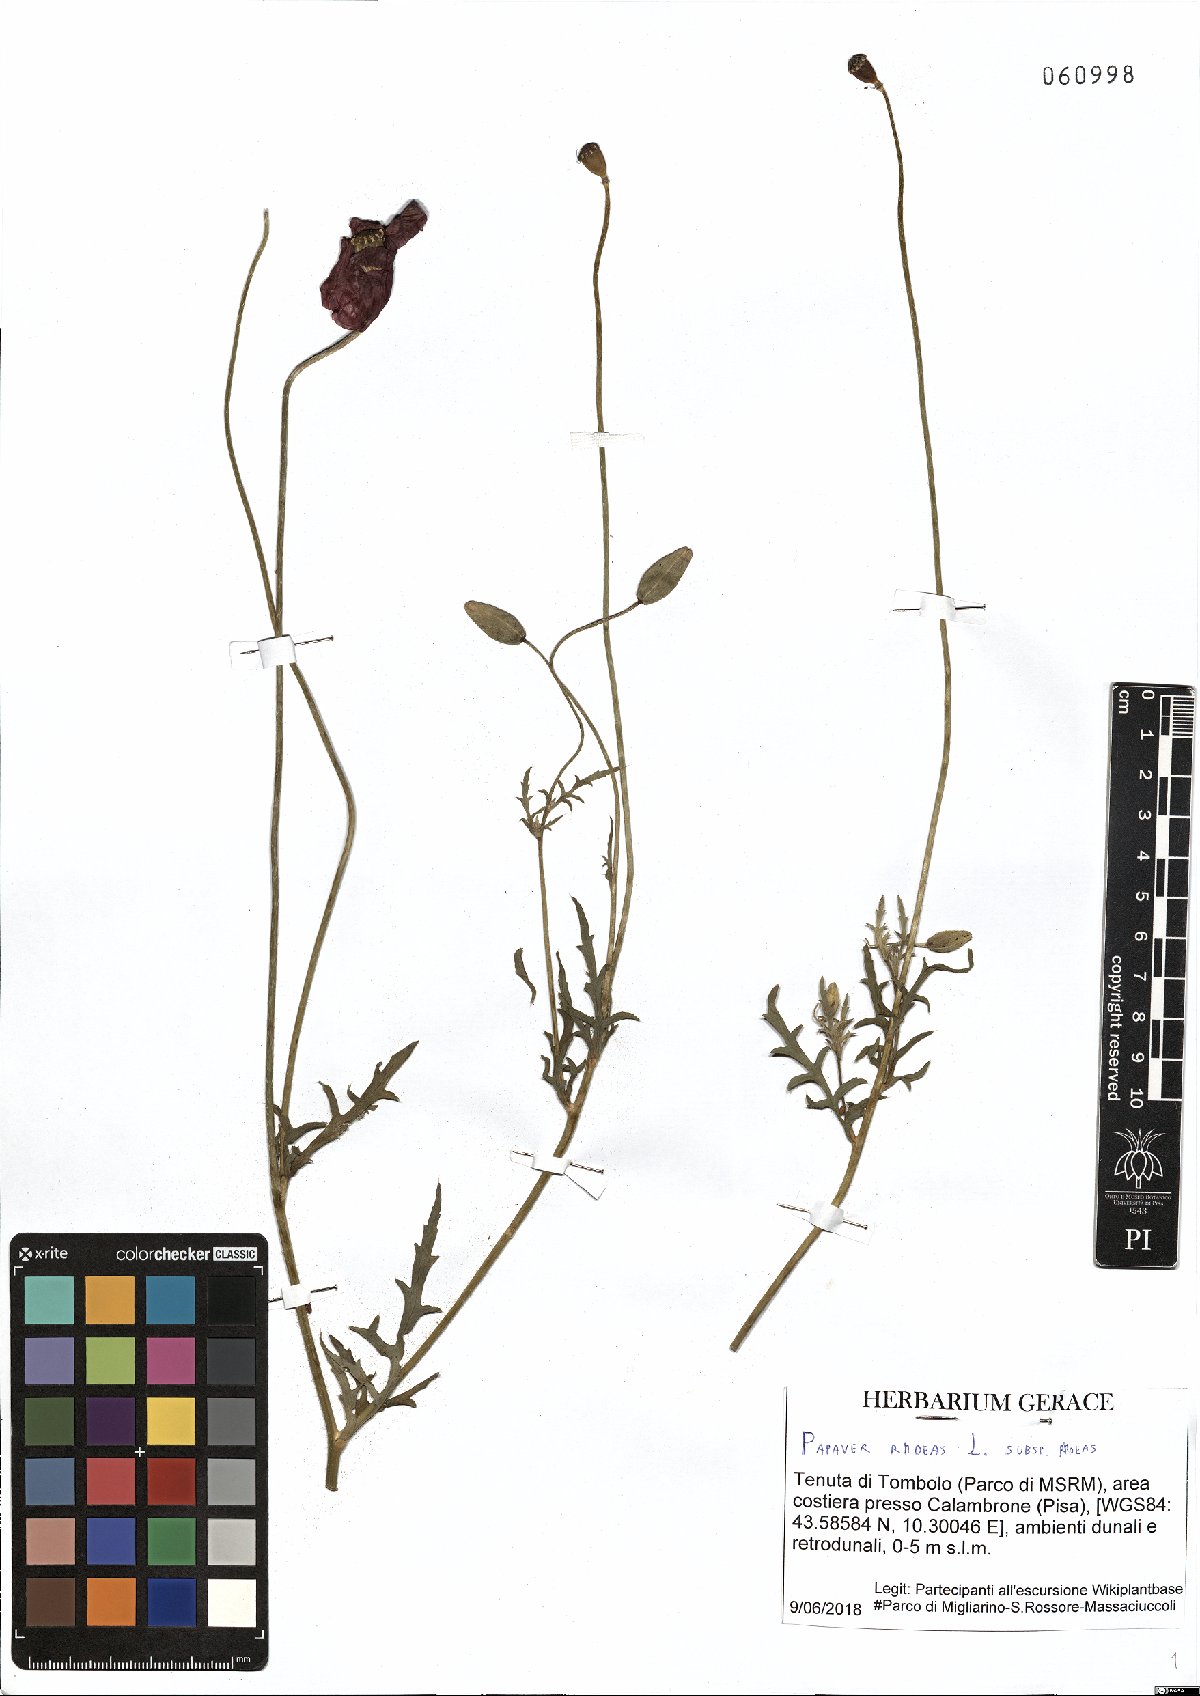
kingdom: Plantae
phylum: Tracheophyta
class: Magnoliopsida
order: Ranunculales
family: Papaveraceae
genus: Papaver
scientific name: Papaver rhoeas
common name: Corn poppy
